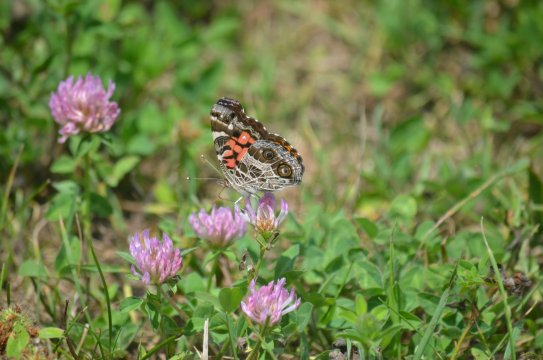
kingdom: Animalia
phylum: Arthropoda
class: Insecta
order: Lepidoptera
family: Nymphalidae
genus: Vanessa
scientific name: Vanessa virginiensis
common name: American Lady
